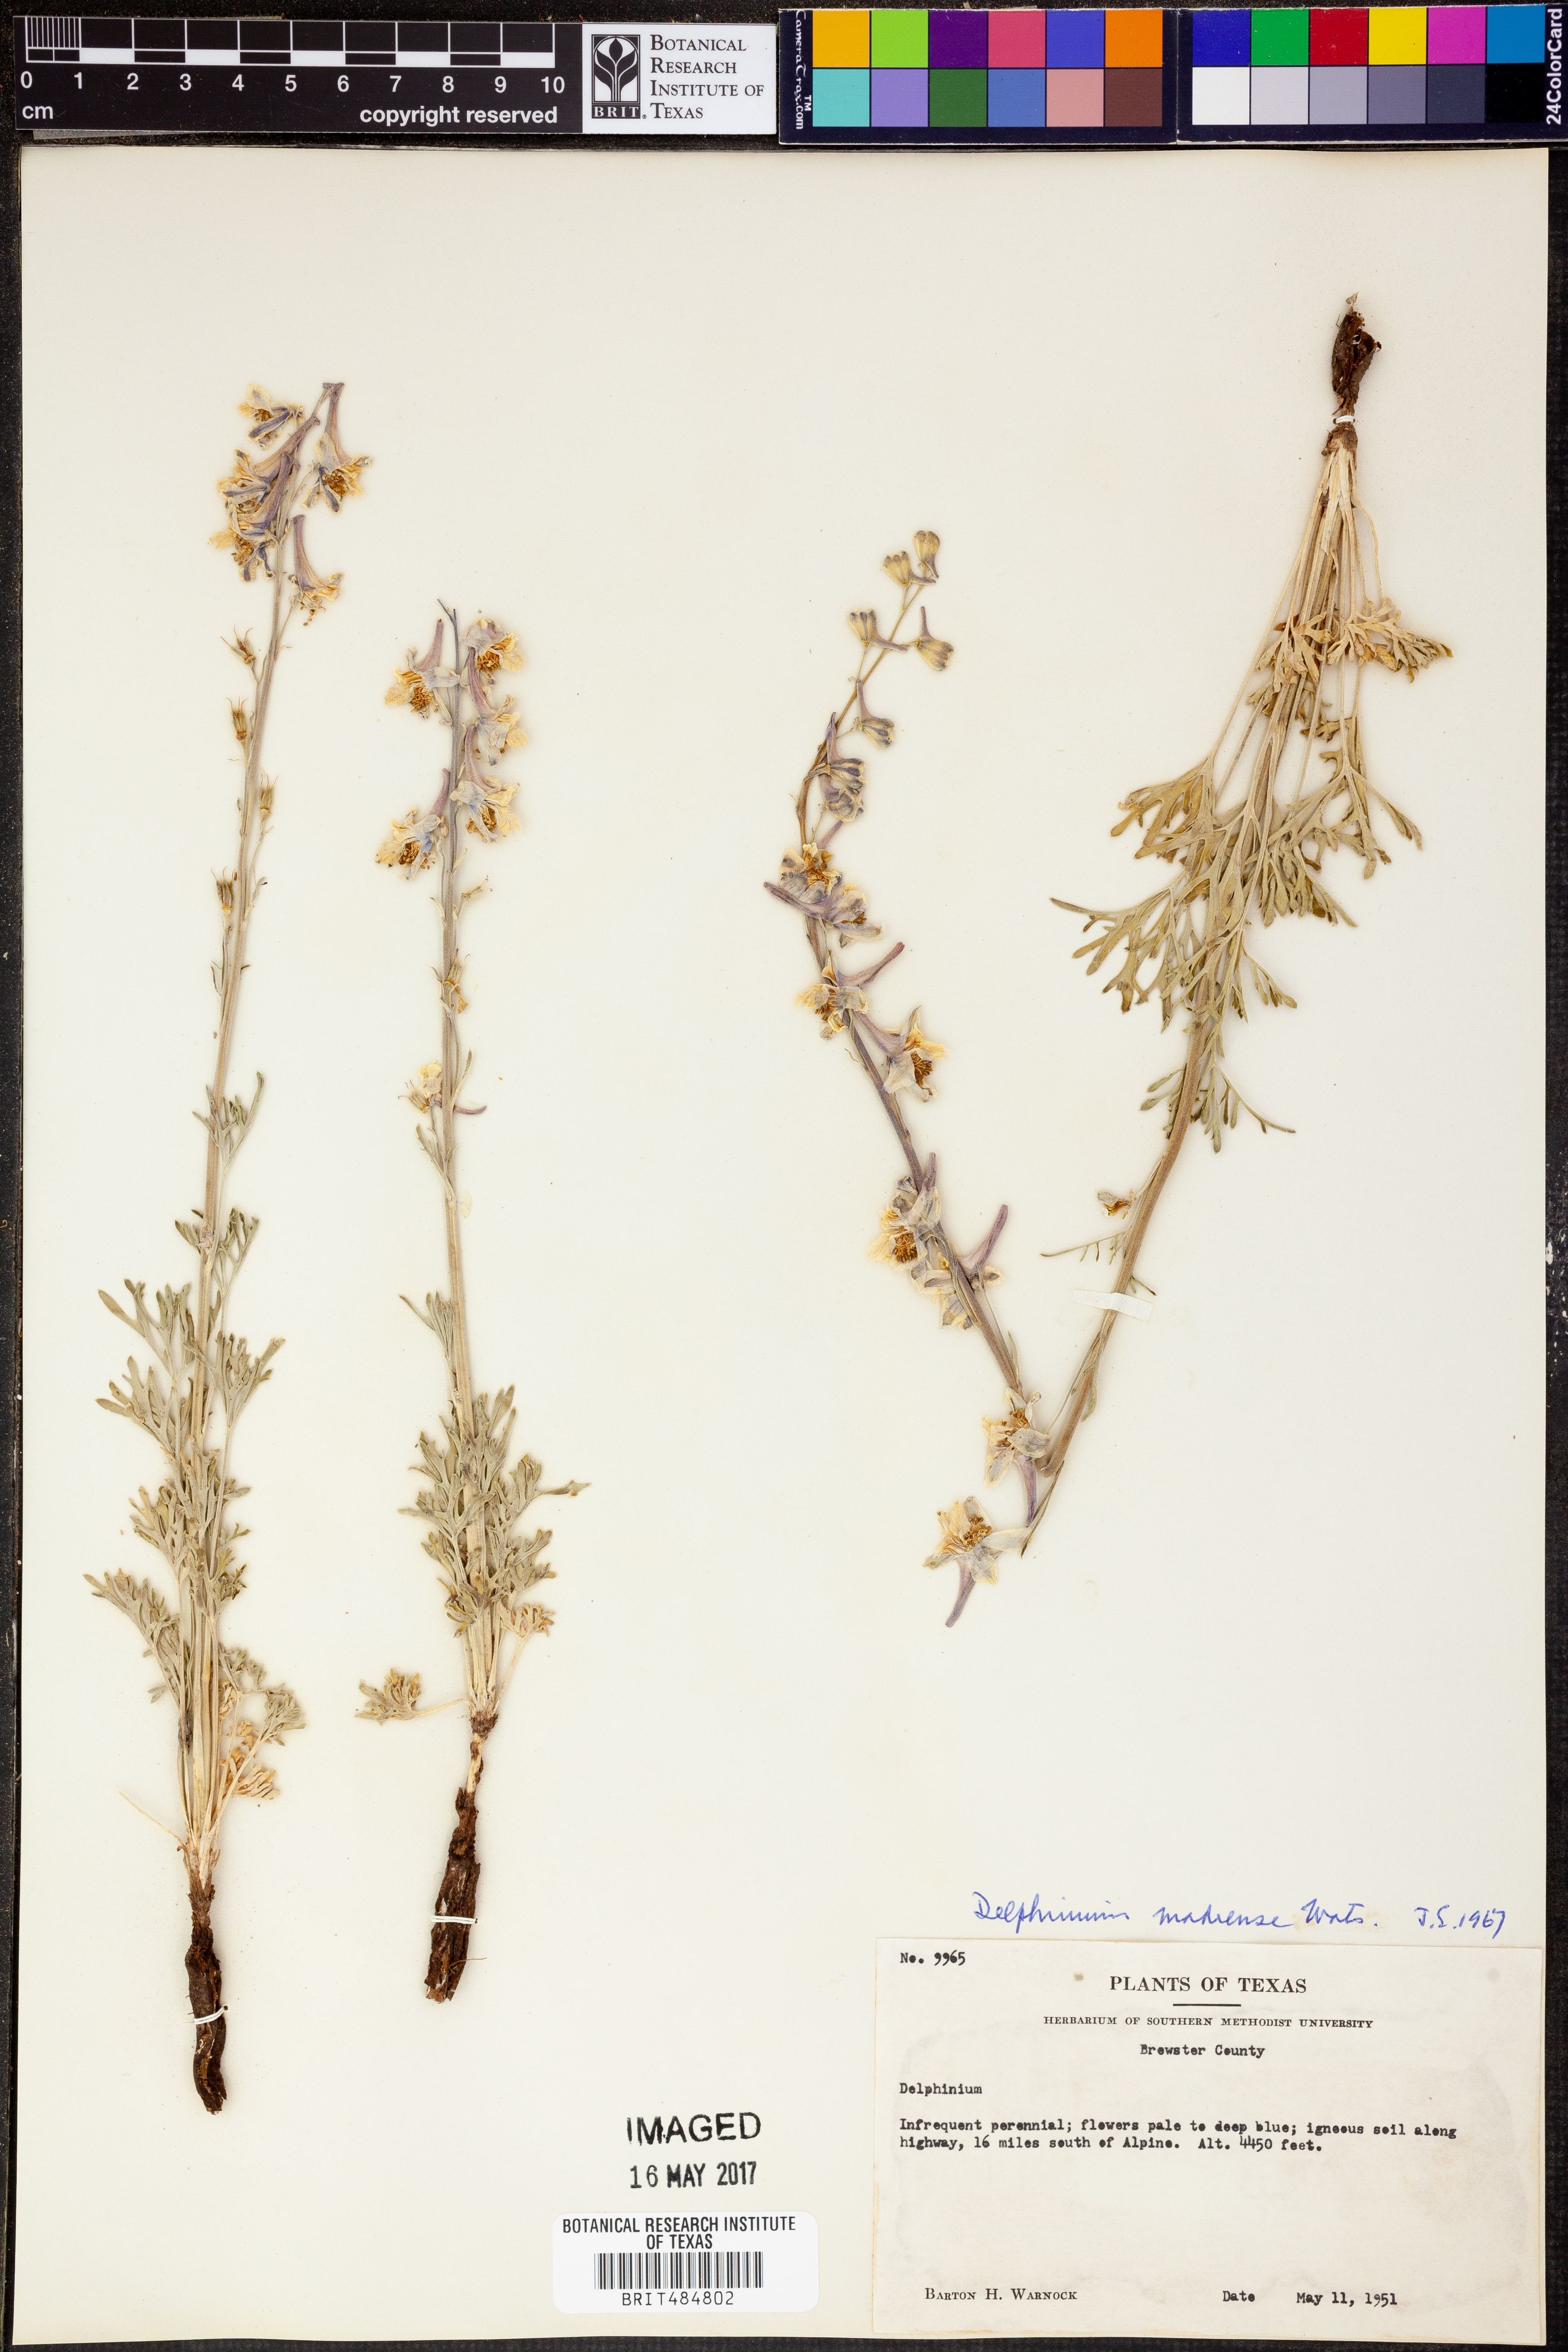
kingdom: Plantae
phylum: Tracheophyta
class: Magnoliopsida
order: Ranunculales
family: Ranunculaceae
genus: Delphinium
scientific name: Delphinium madrense
